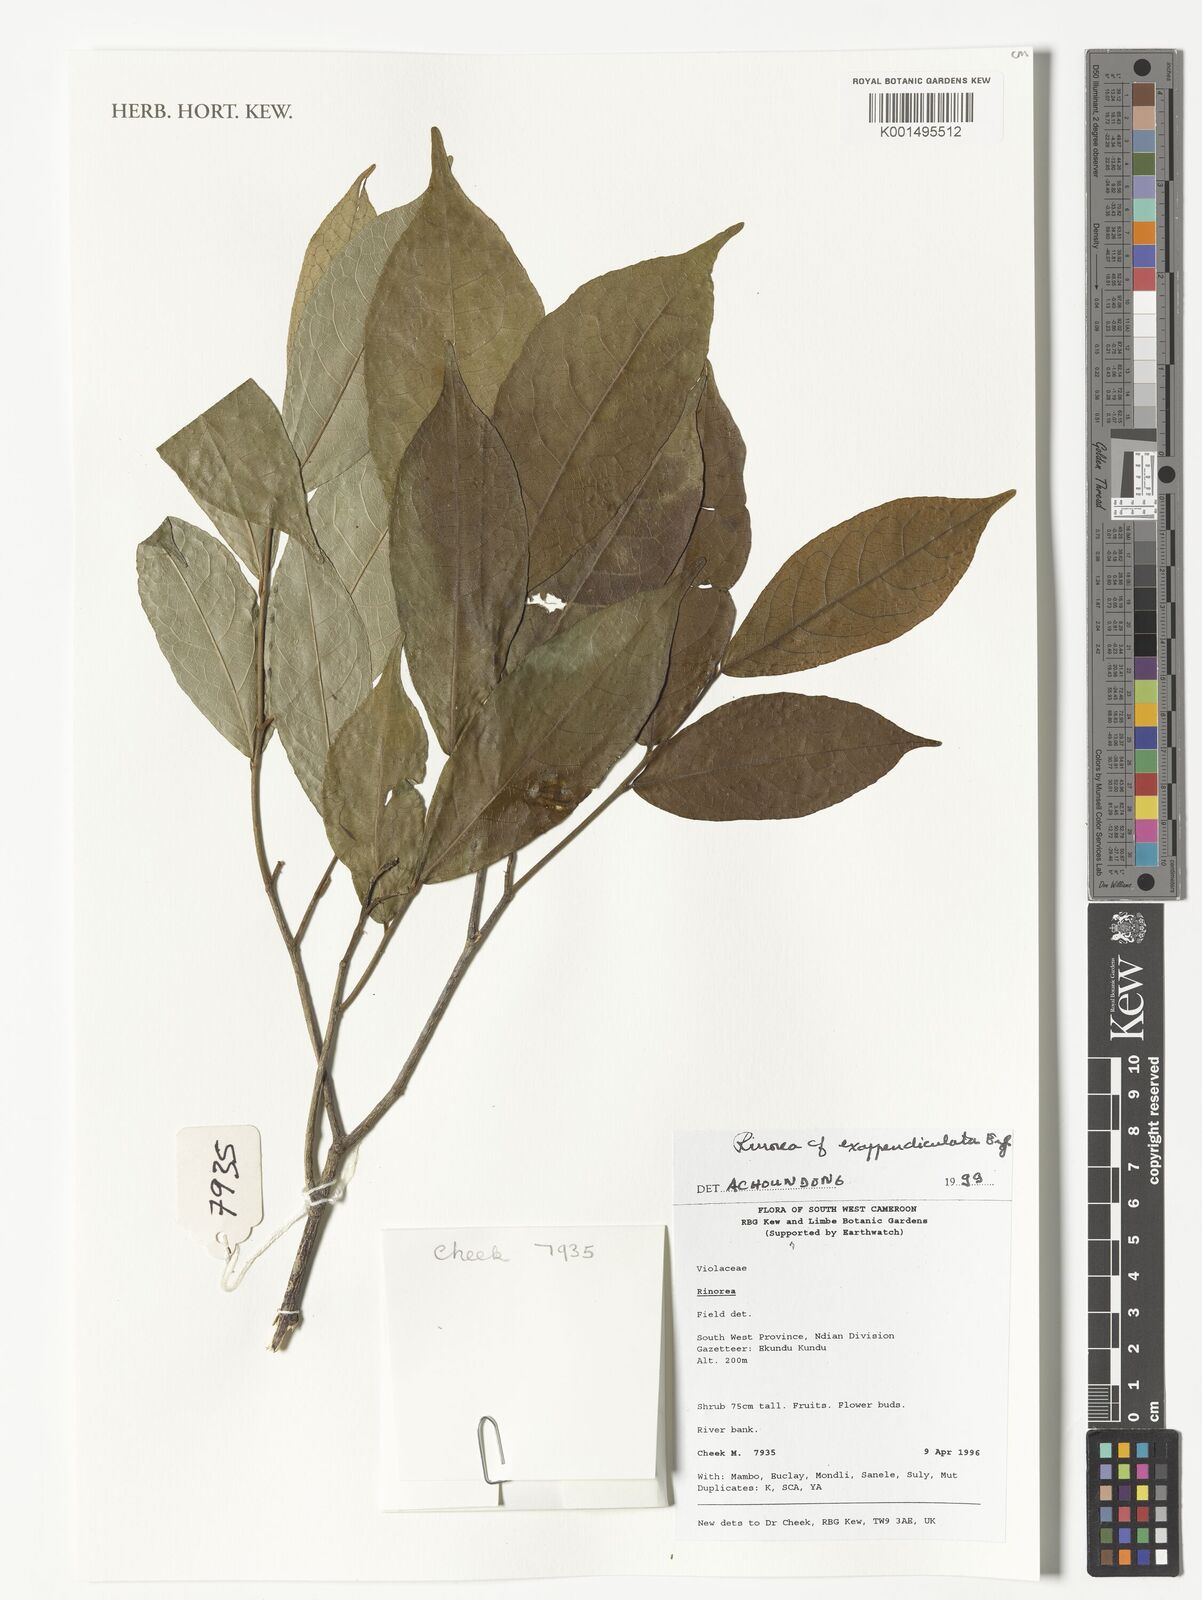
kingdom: Plantae
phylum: Tracheophyta
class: Magnoliopsida
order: Malpighiales
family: Violaceae
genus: Rinorea
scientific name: Rinorea exappendiculata
